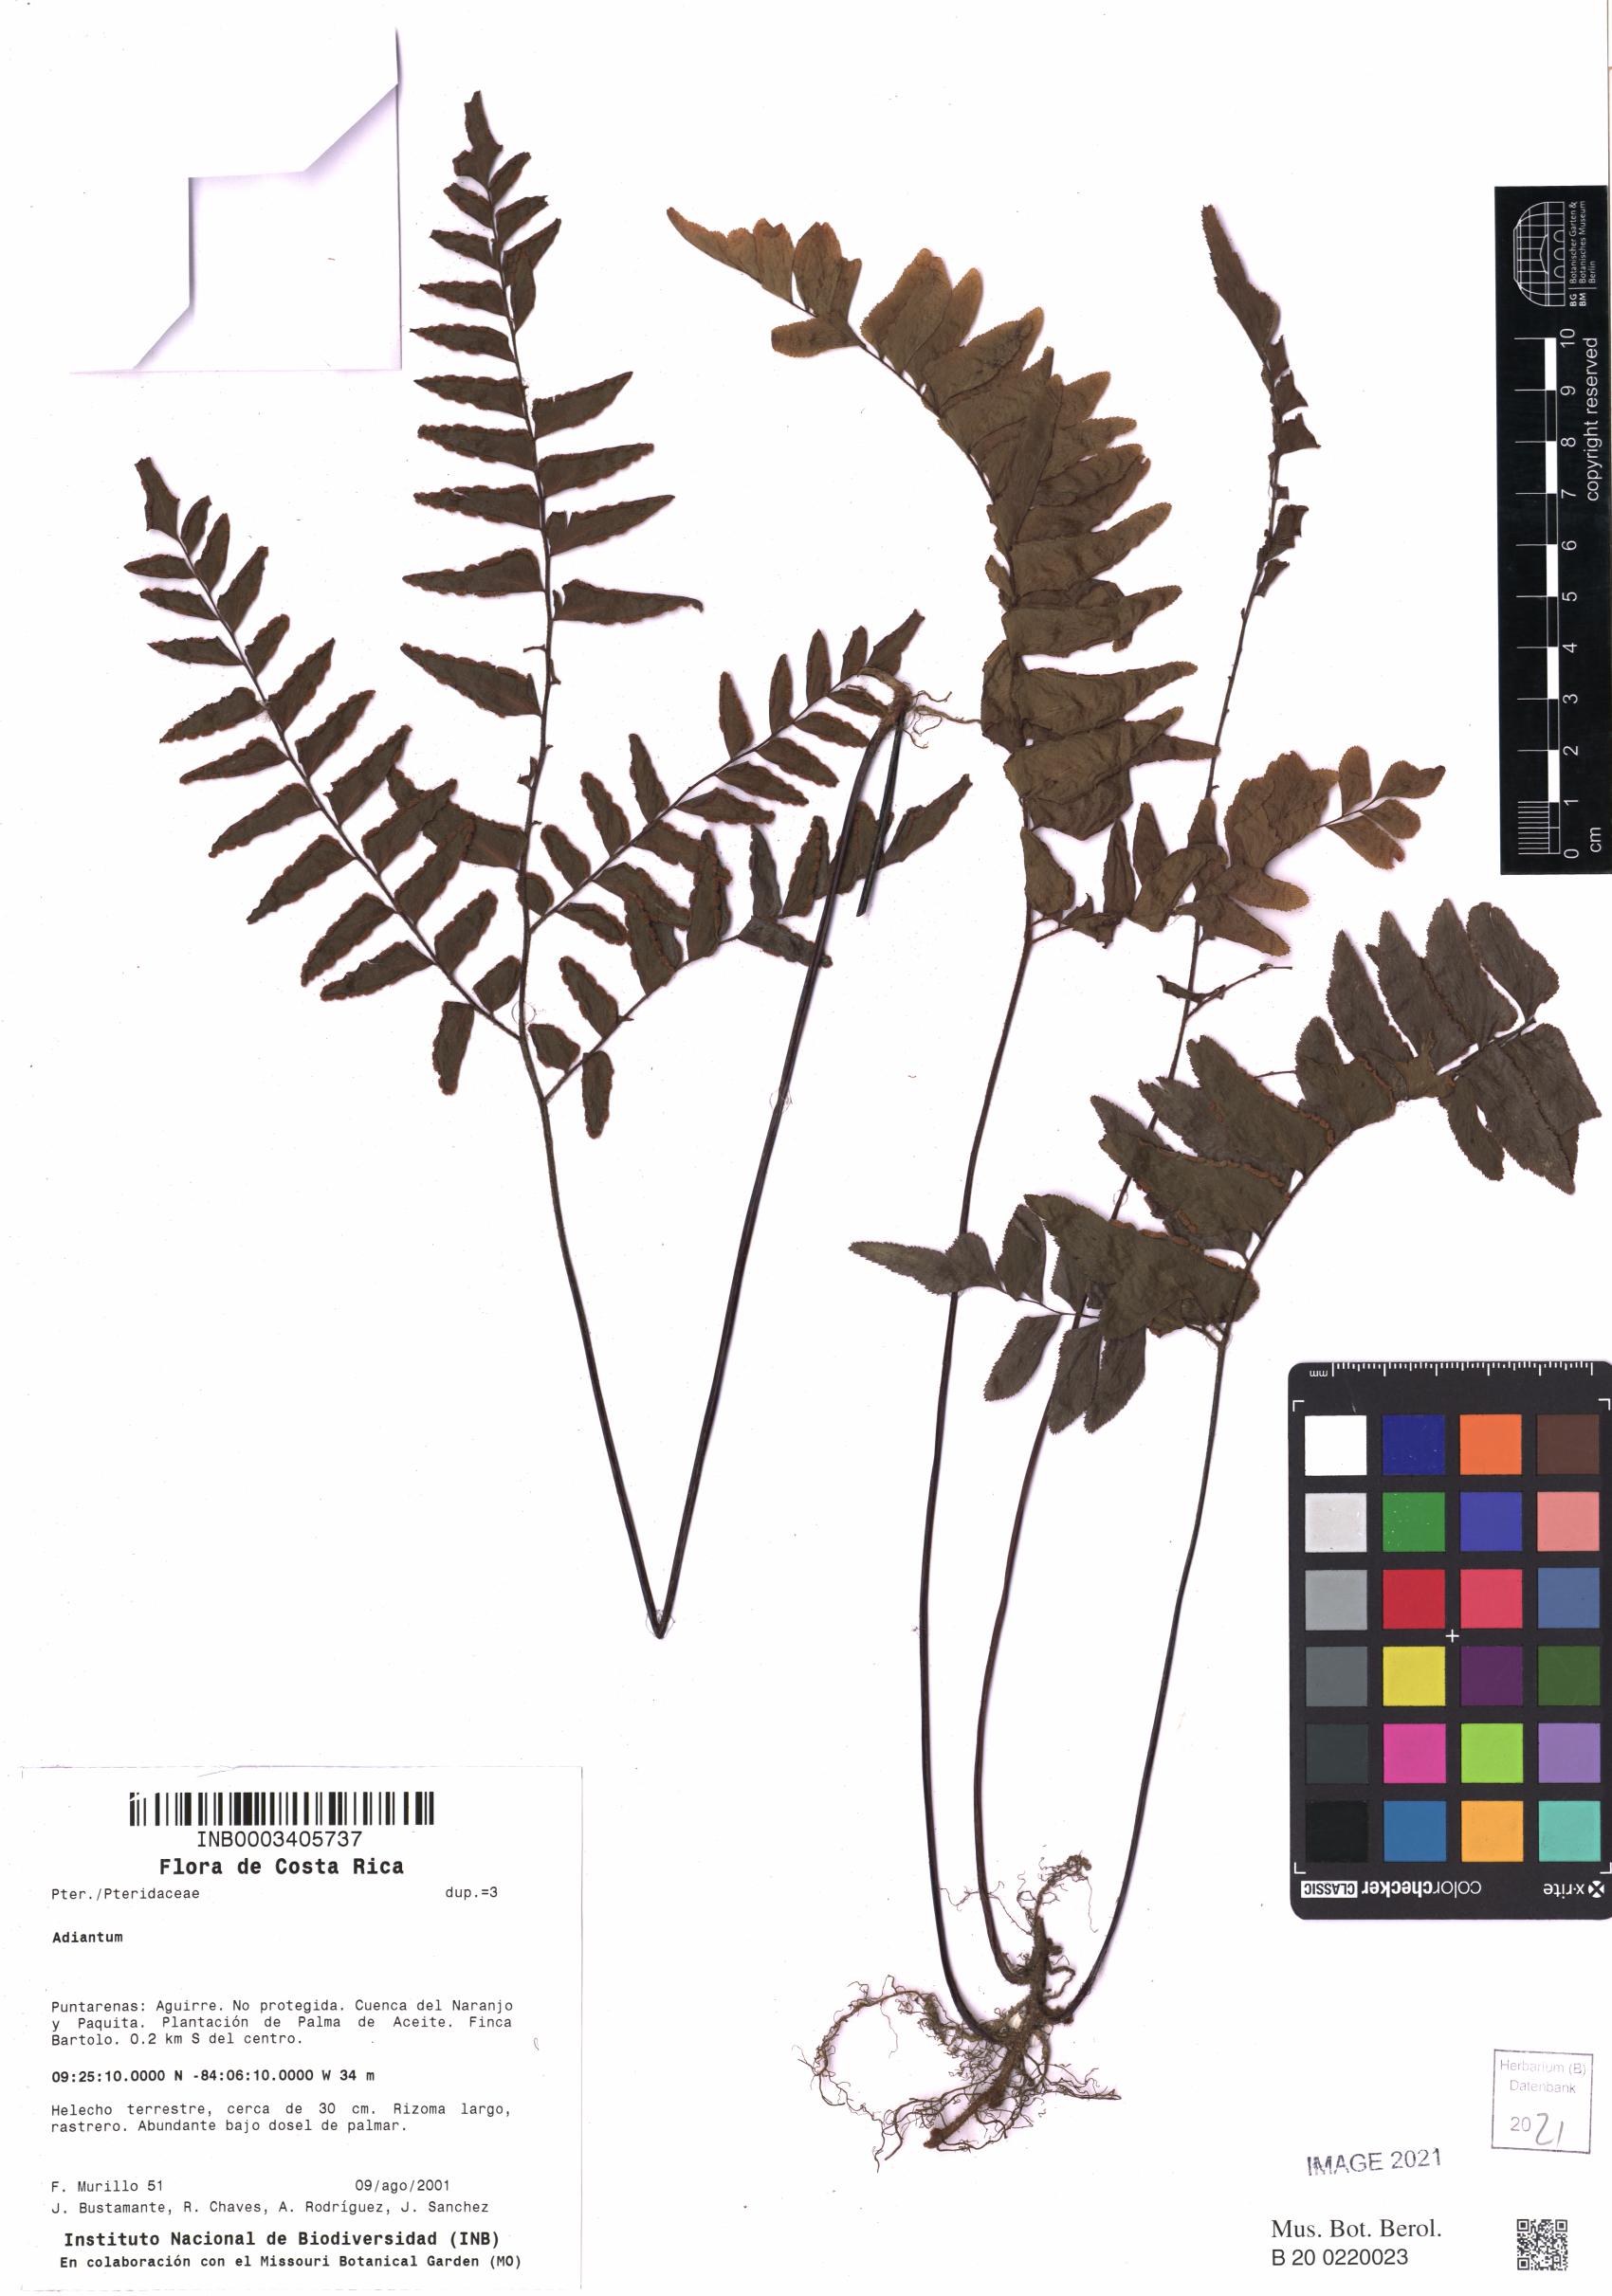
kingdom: Plantae
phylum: Tracheophyta
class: Polypodiopsida
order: Polypodiales
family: Pteridaceae
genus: Adiantum
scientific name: Adiantum
